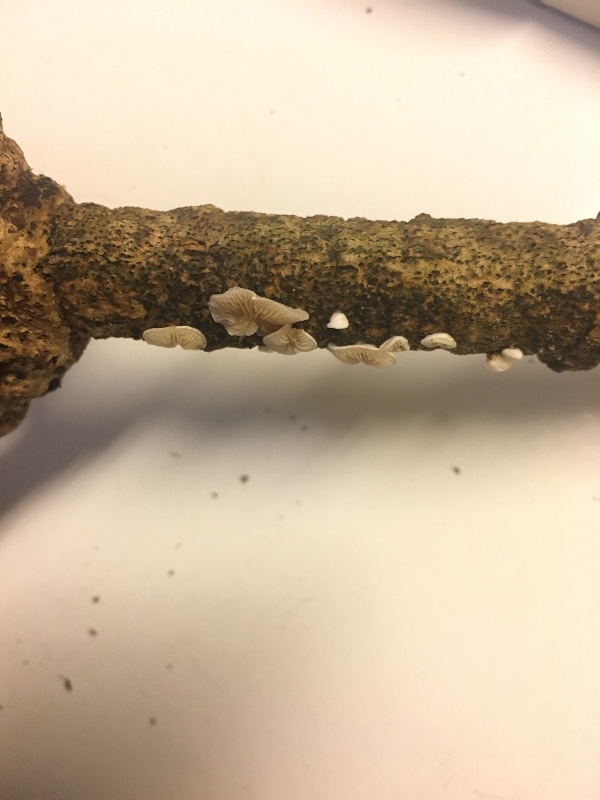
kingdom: Fungi
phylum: Basidiomycota
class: Agaricomycetes
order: Agaricales
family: Crepidotaceae
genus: Crepidotus
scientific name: Crepidotus subverrucisporus
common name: mandelsporet muslingesvamp
